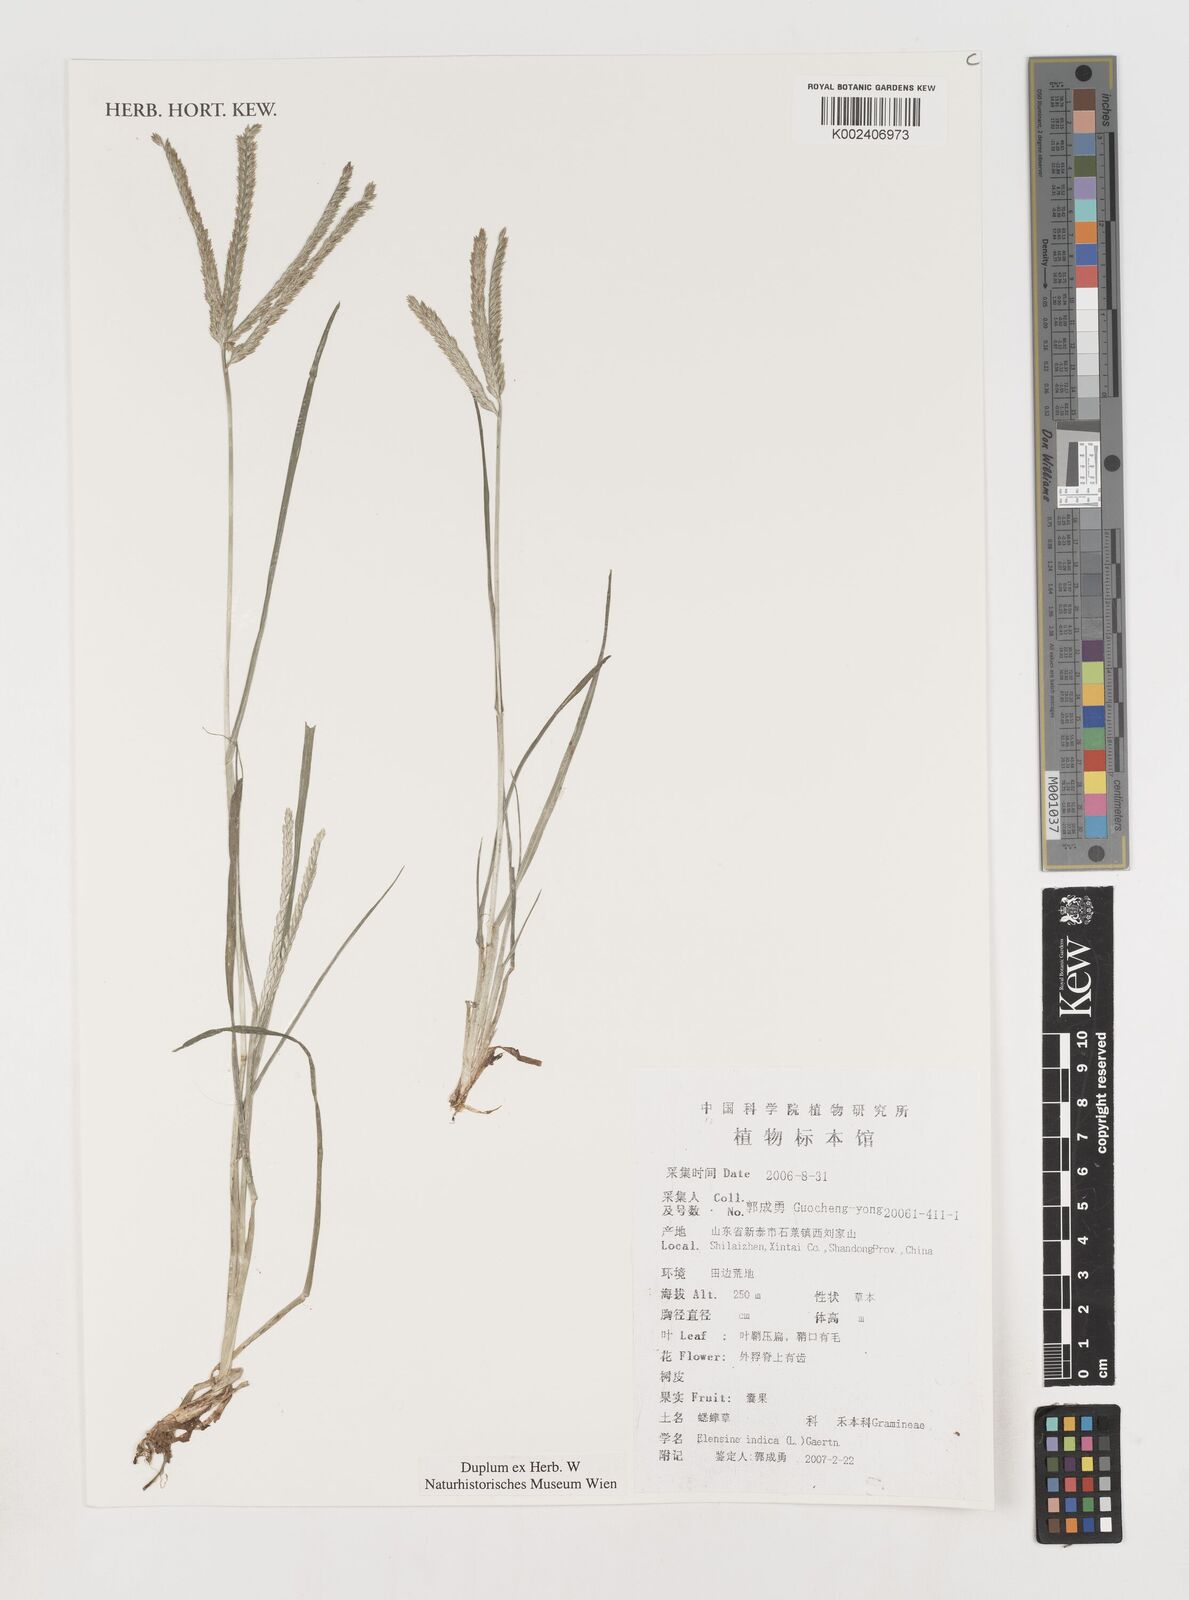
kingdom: Plantae
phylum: Tracheophyta
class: Liliopsida
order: Poales
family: Poaceae
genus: Eleusine
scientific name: Eleusine indica
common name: Yard-grass
